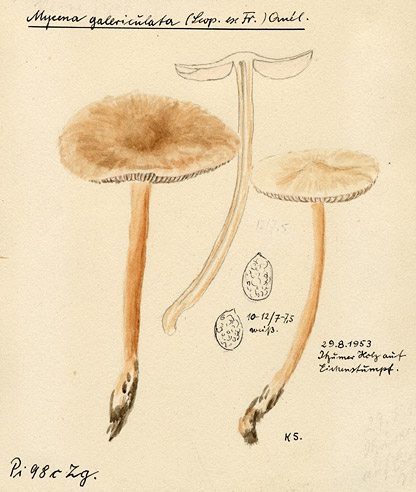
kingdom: Fungi
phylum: Basidiomycota
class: Agaricomycetes
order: Agaricales
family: Mycenaceae
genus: Mycena
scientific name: Mycena galericulata
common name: Bonnet mycena
